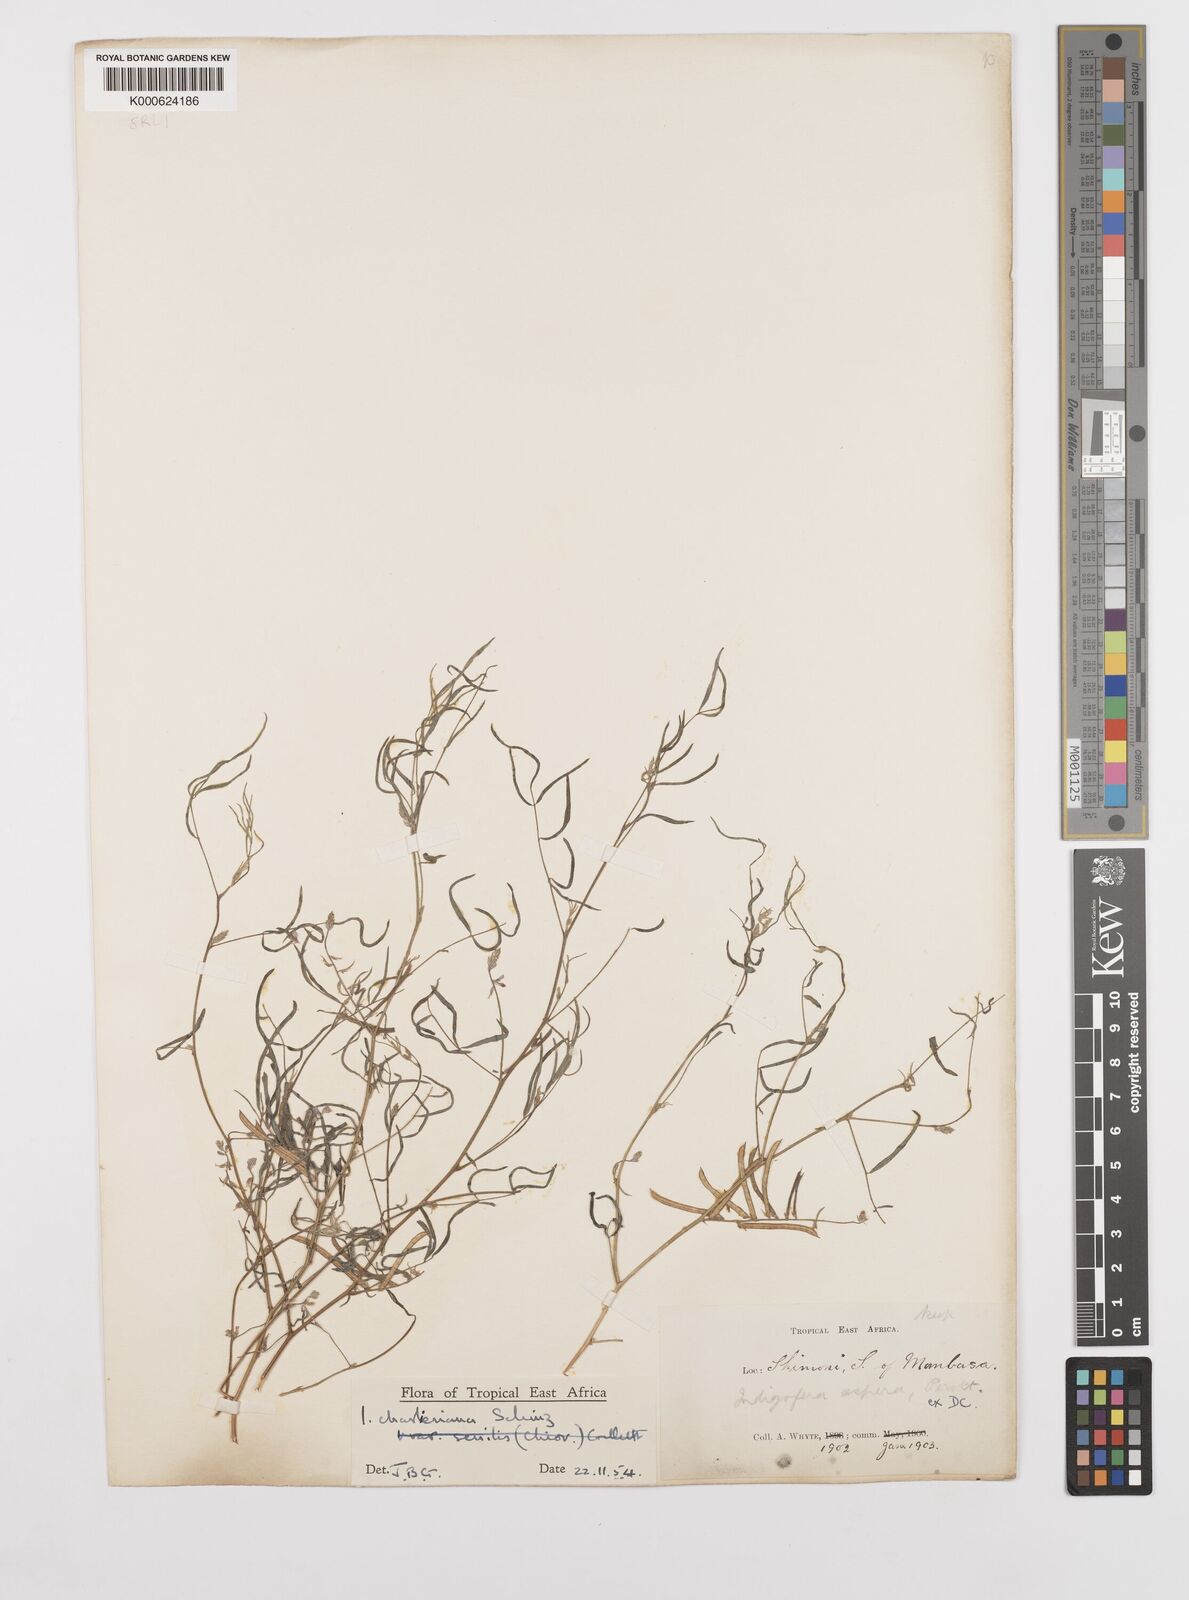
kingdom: Plantae
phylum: Tracheophyta
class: Magnoliopsida
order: Fabales
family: Fabaceae
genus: Indigofera
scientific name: Indigofera charlieriana
